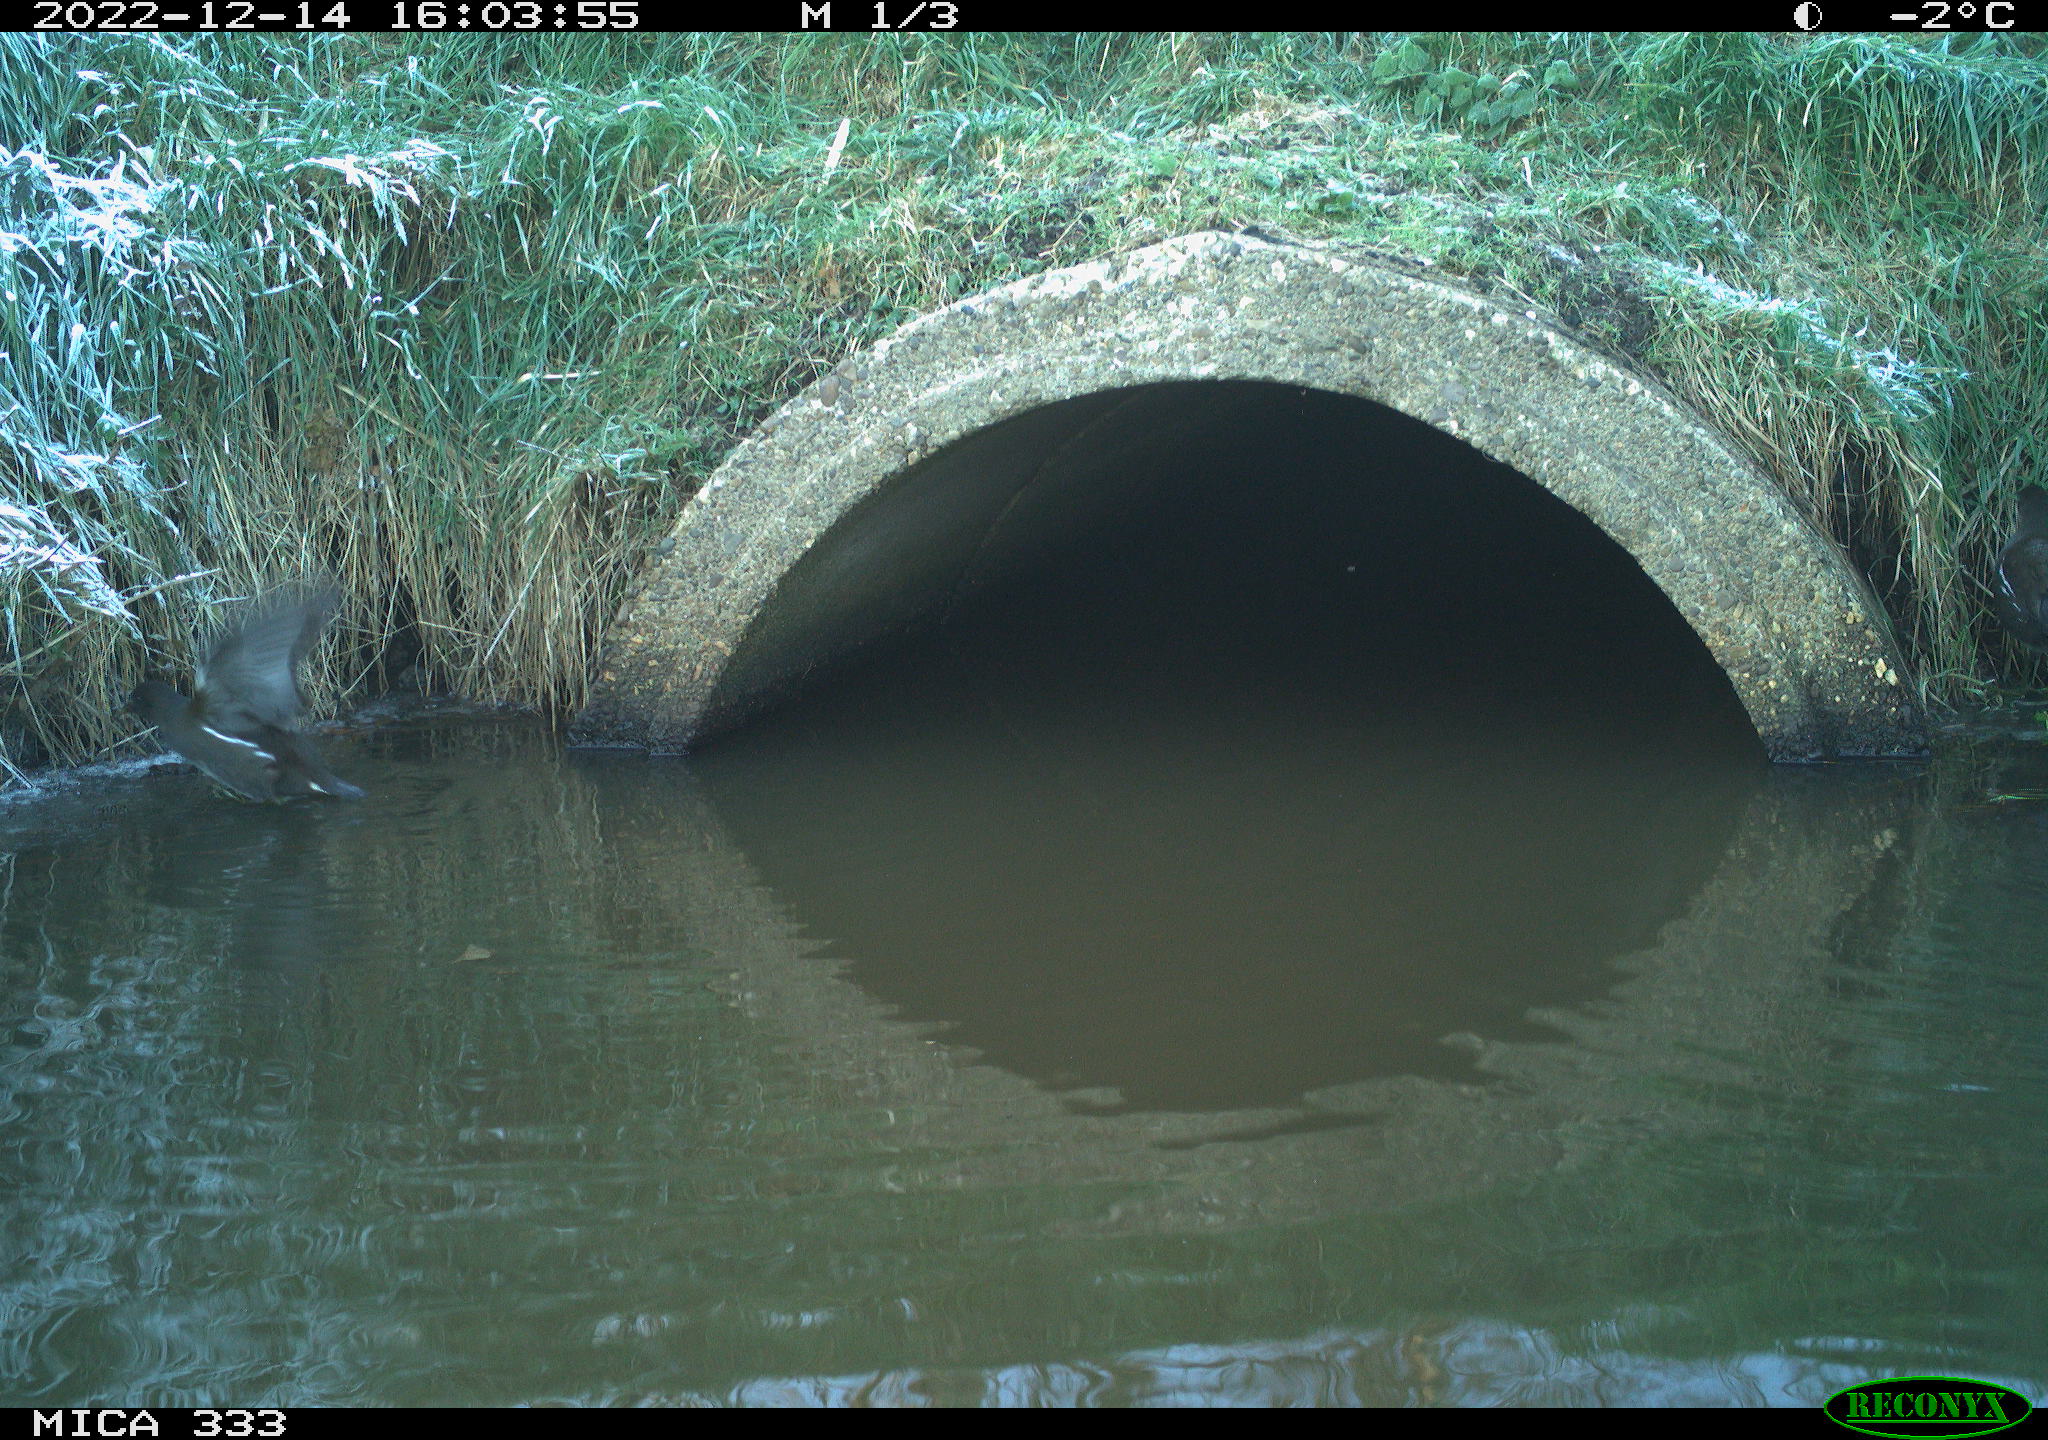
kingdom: Animalia
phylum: Chordata
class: Aves
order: Gruiformes
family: Rallidae
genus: Gallinula
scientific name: Gallinula chloropus
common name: Common moorhen
